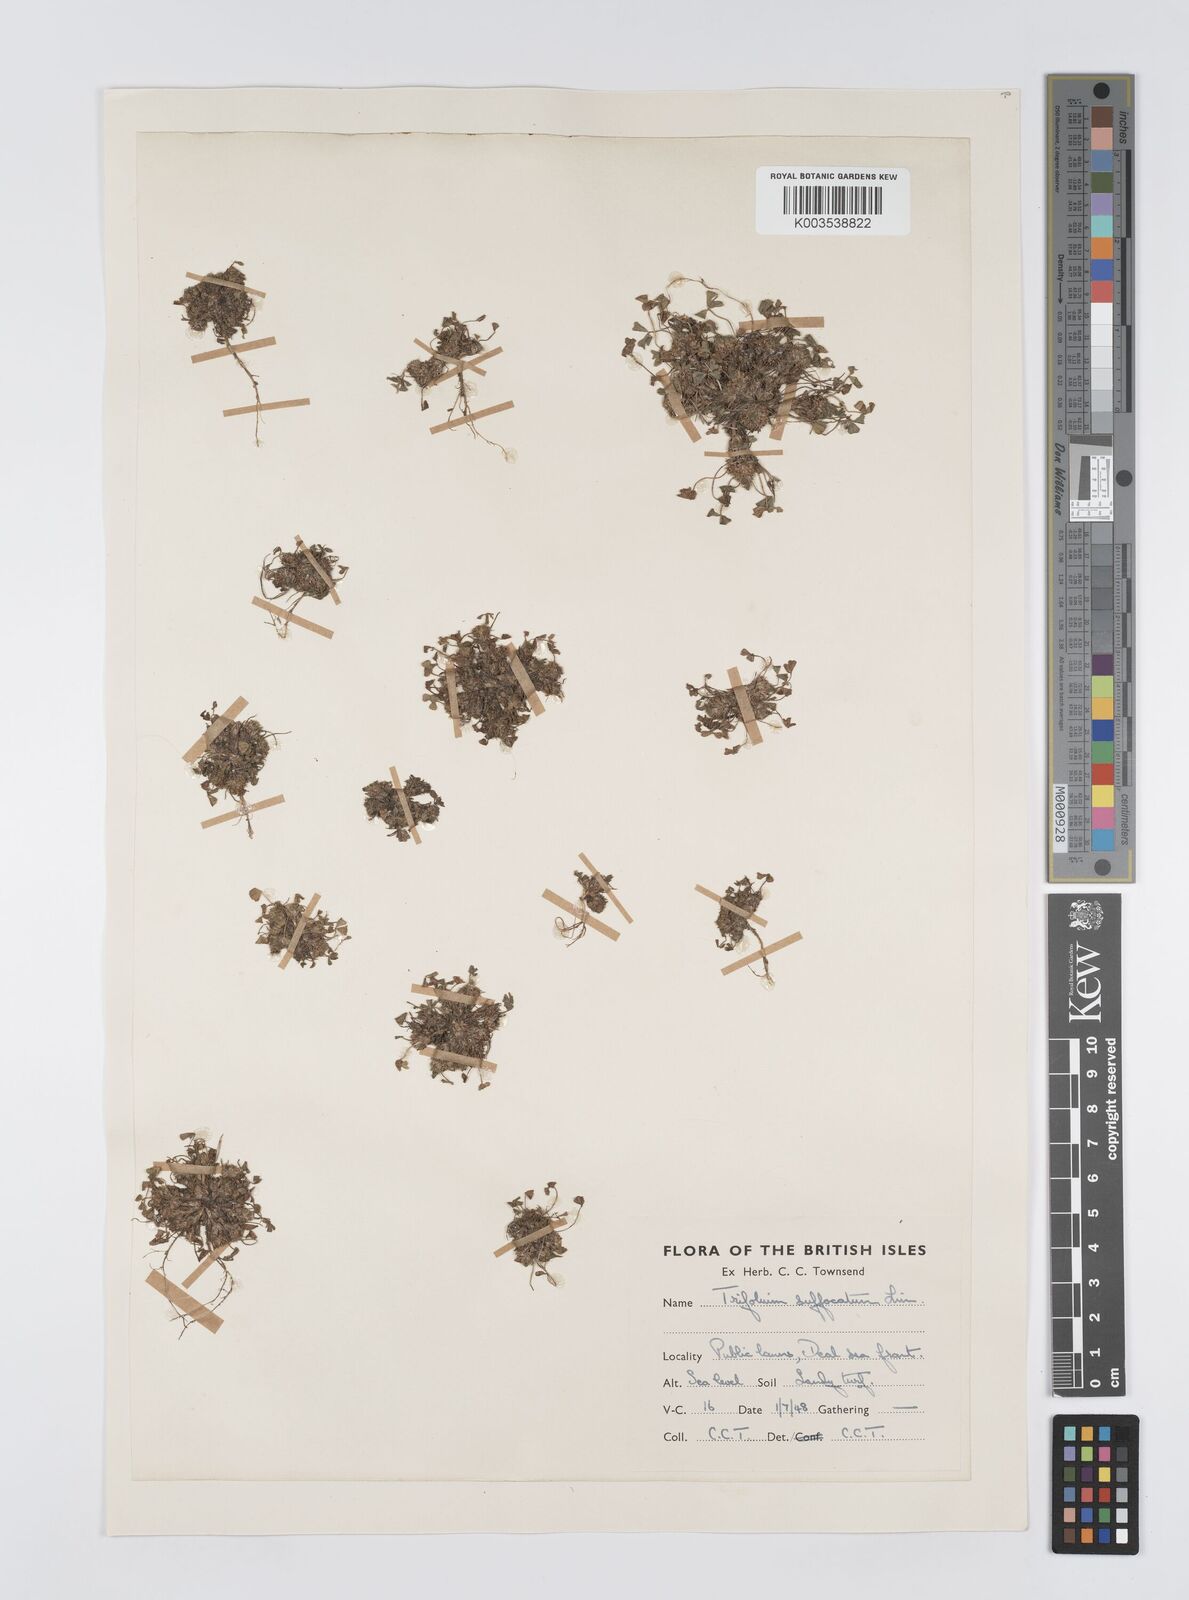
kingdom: Plantae
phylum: Tracheophyta
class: Magnoliopsida
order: Fabales
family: Fabaceae
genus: Trifolium
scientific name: Trifolium suffocatum
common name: Suffocated clover
